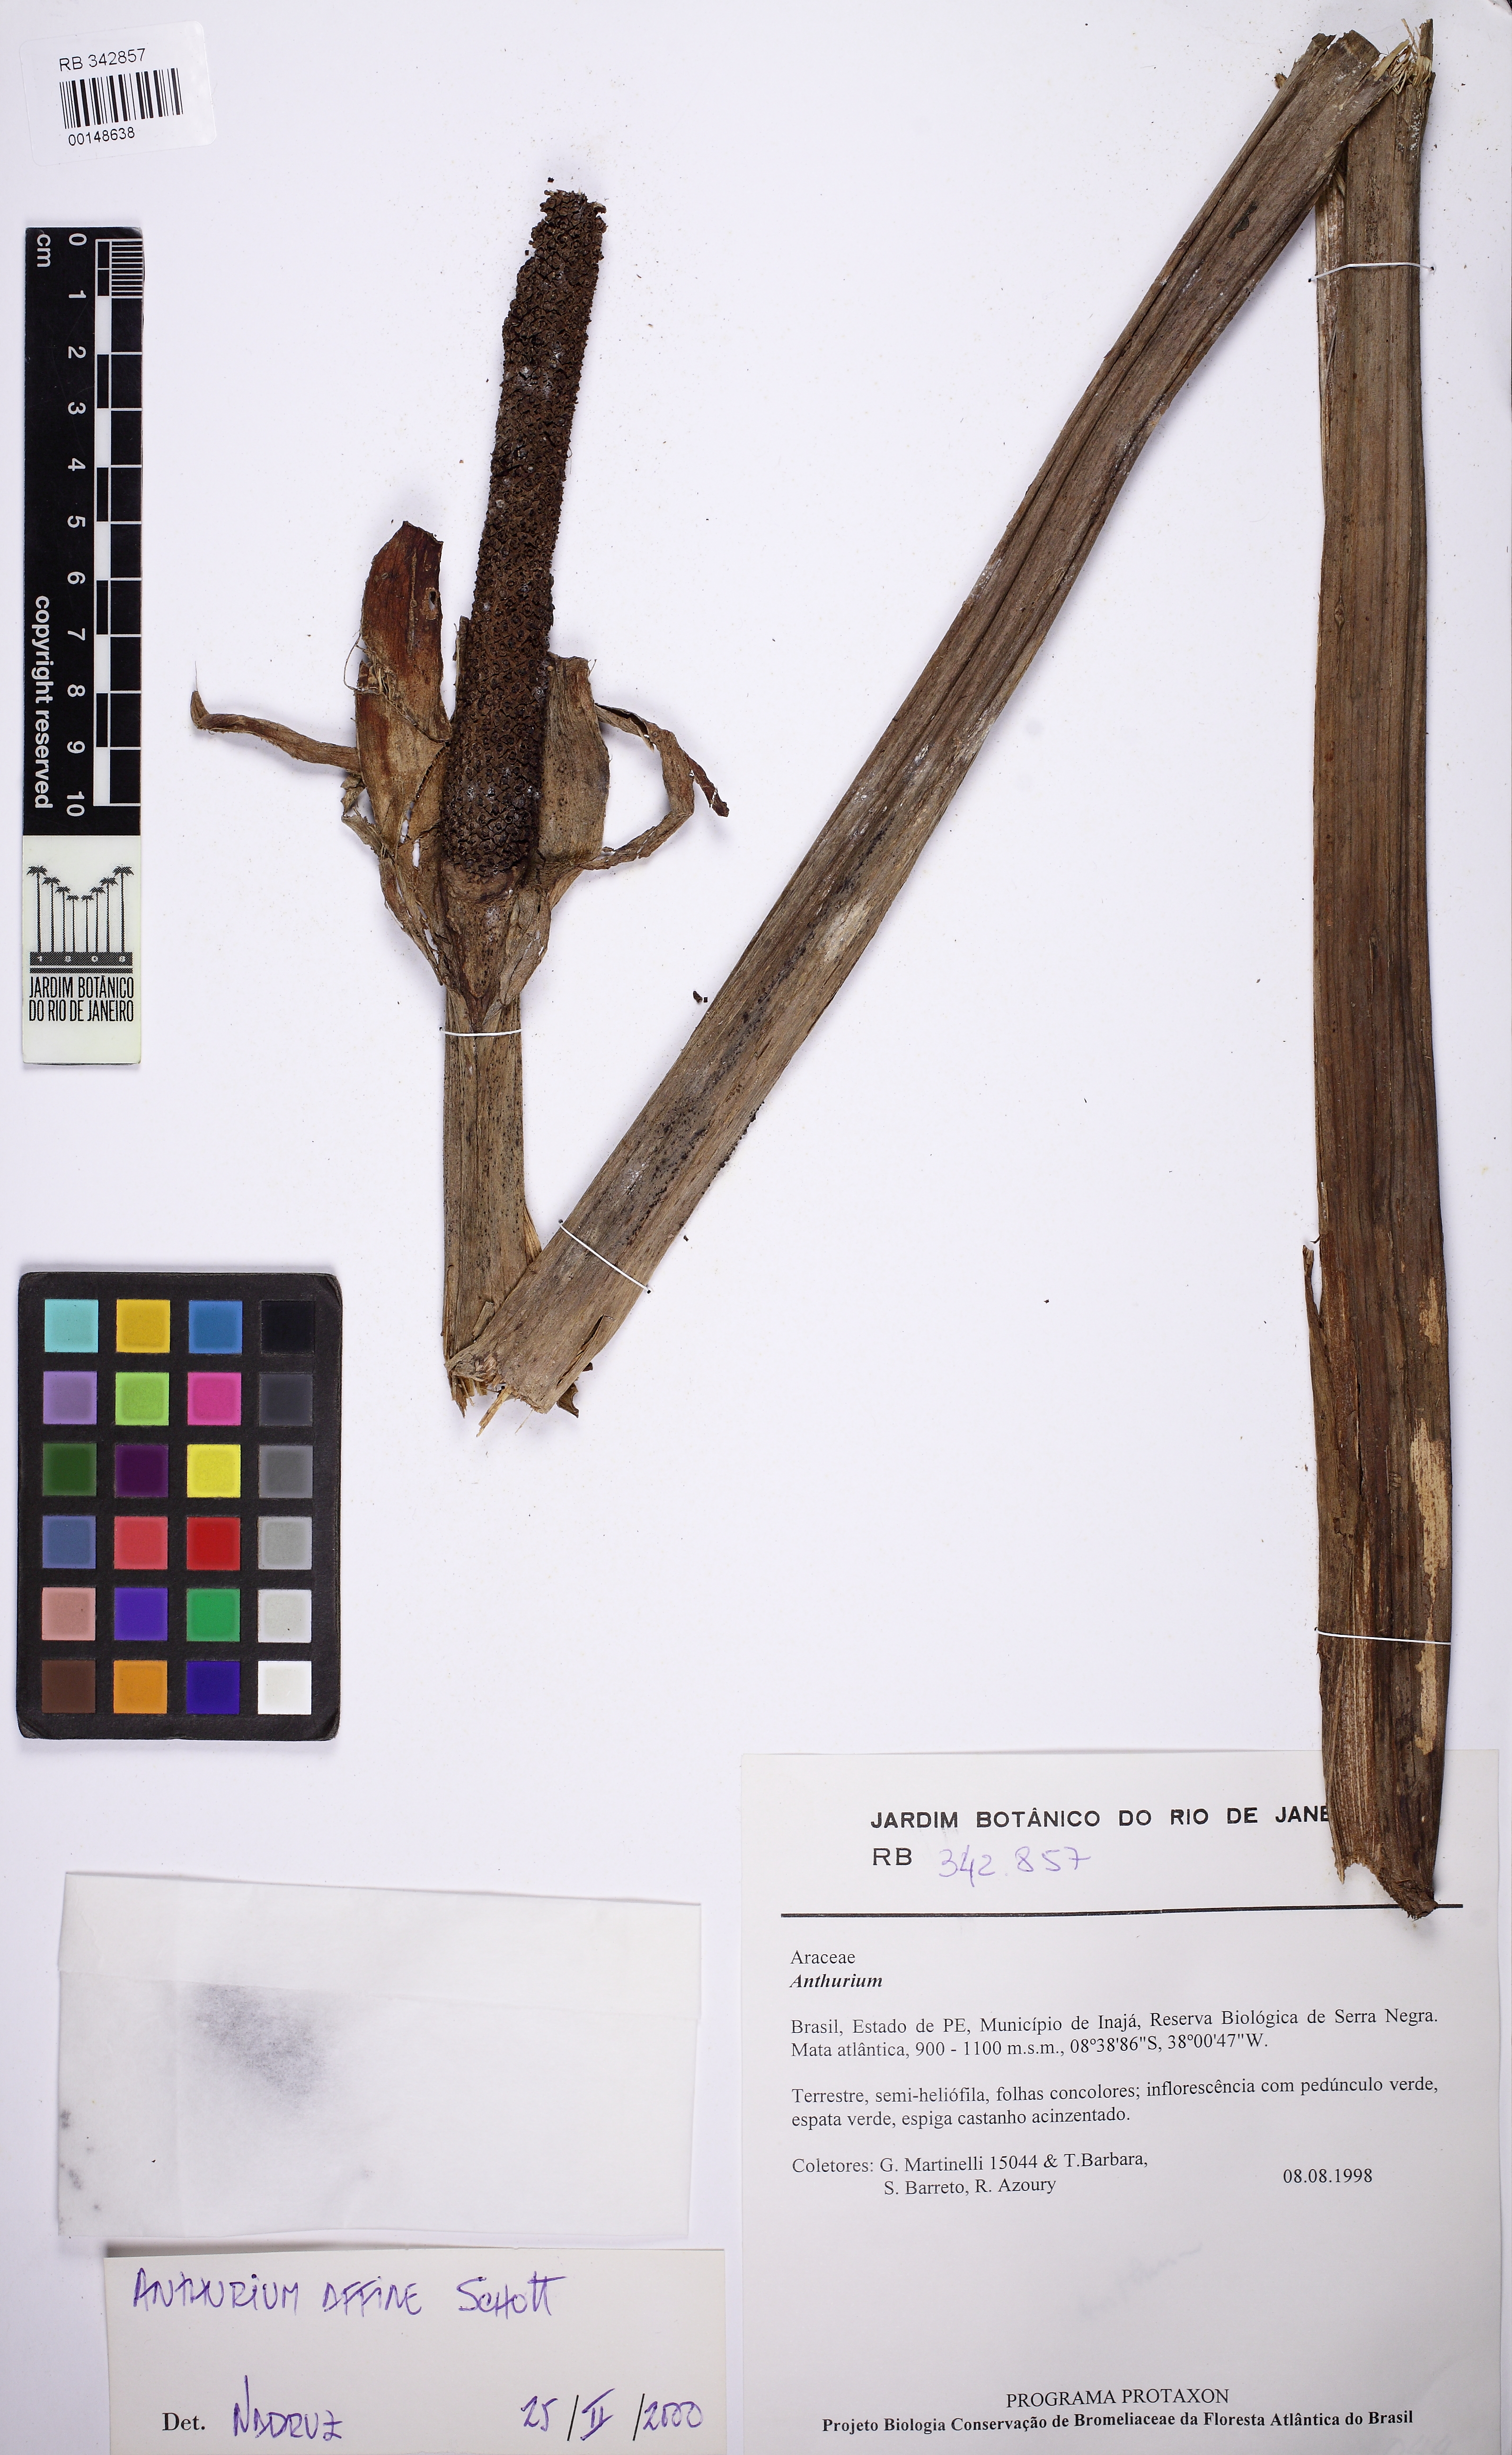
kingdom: Plantae
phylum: Tracheophyta
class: Liliopsida
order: Alismatales
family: Araceae
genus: Anthurium
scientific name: Anthurium affine
